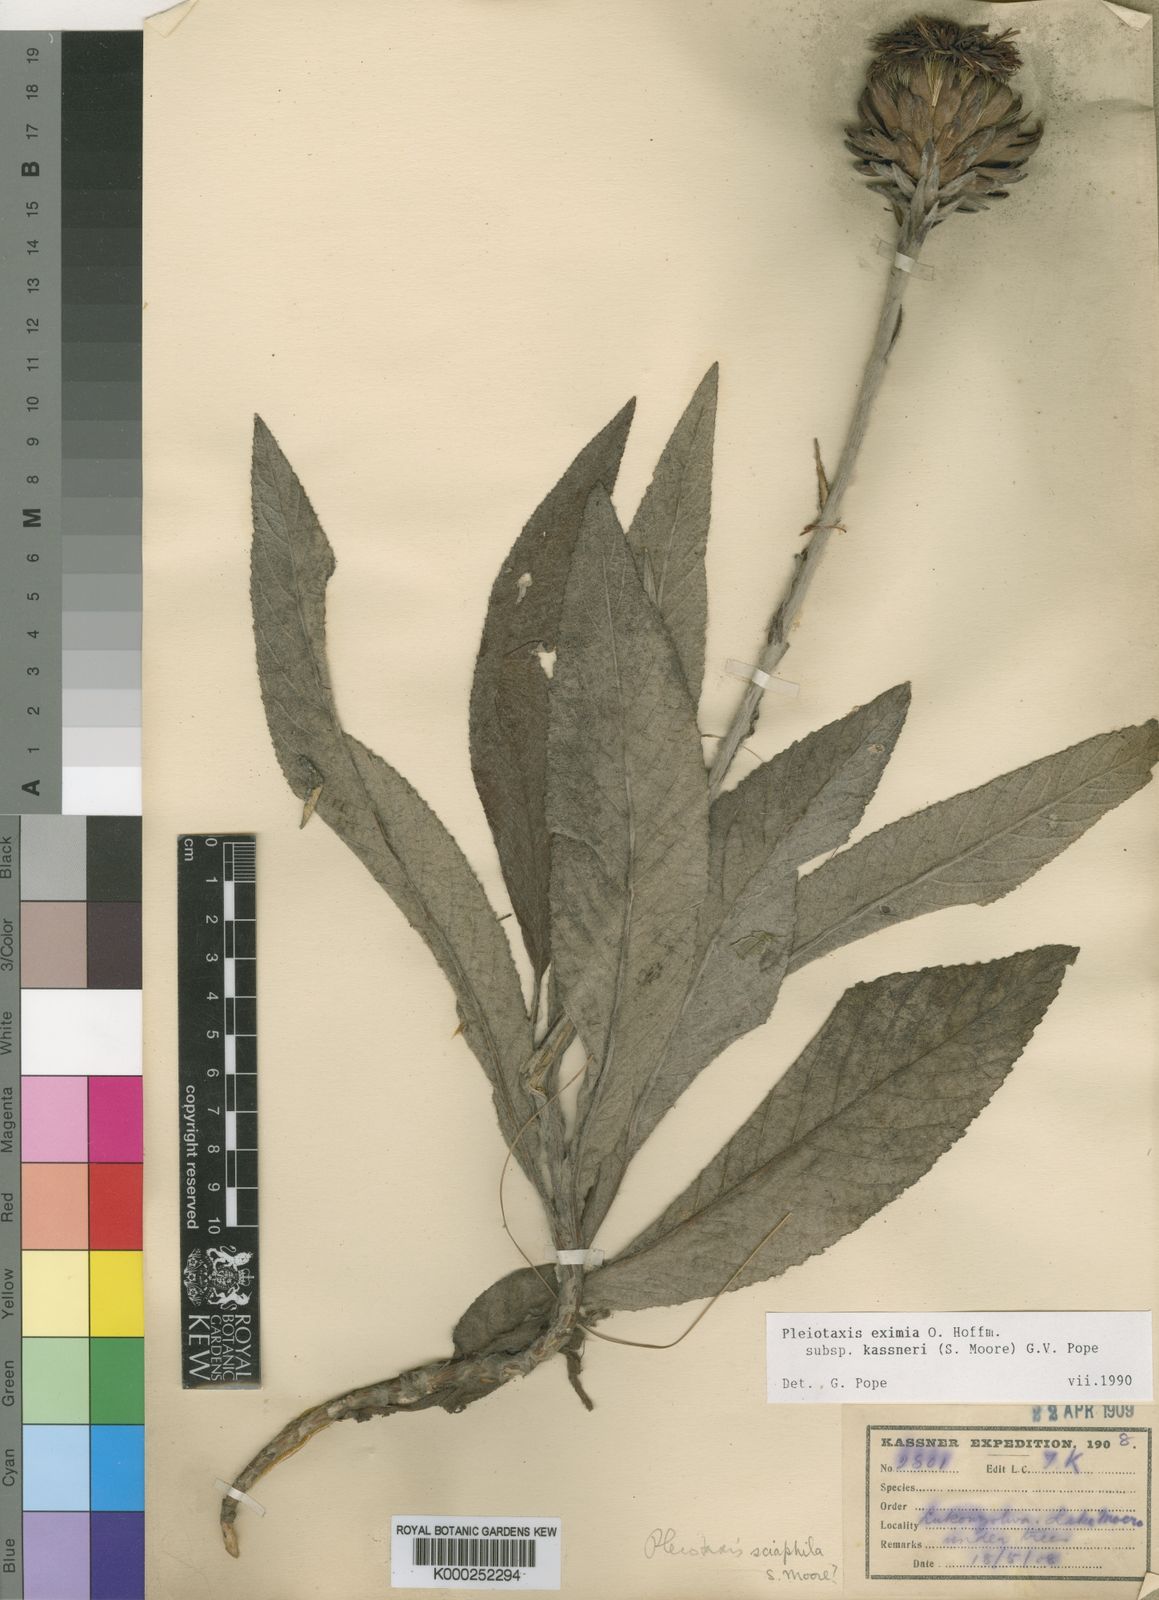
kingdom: Plantae
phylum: Tracheophyta
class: Magnoliopsida
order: Asterales
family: Asteraceae
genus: Pleiotaxis
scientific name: Pleiotaxis
